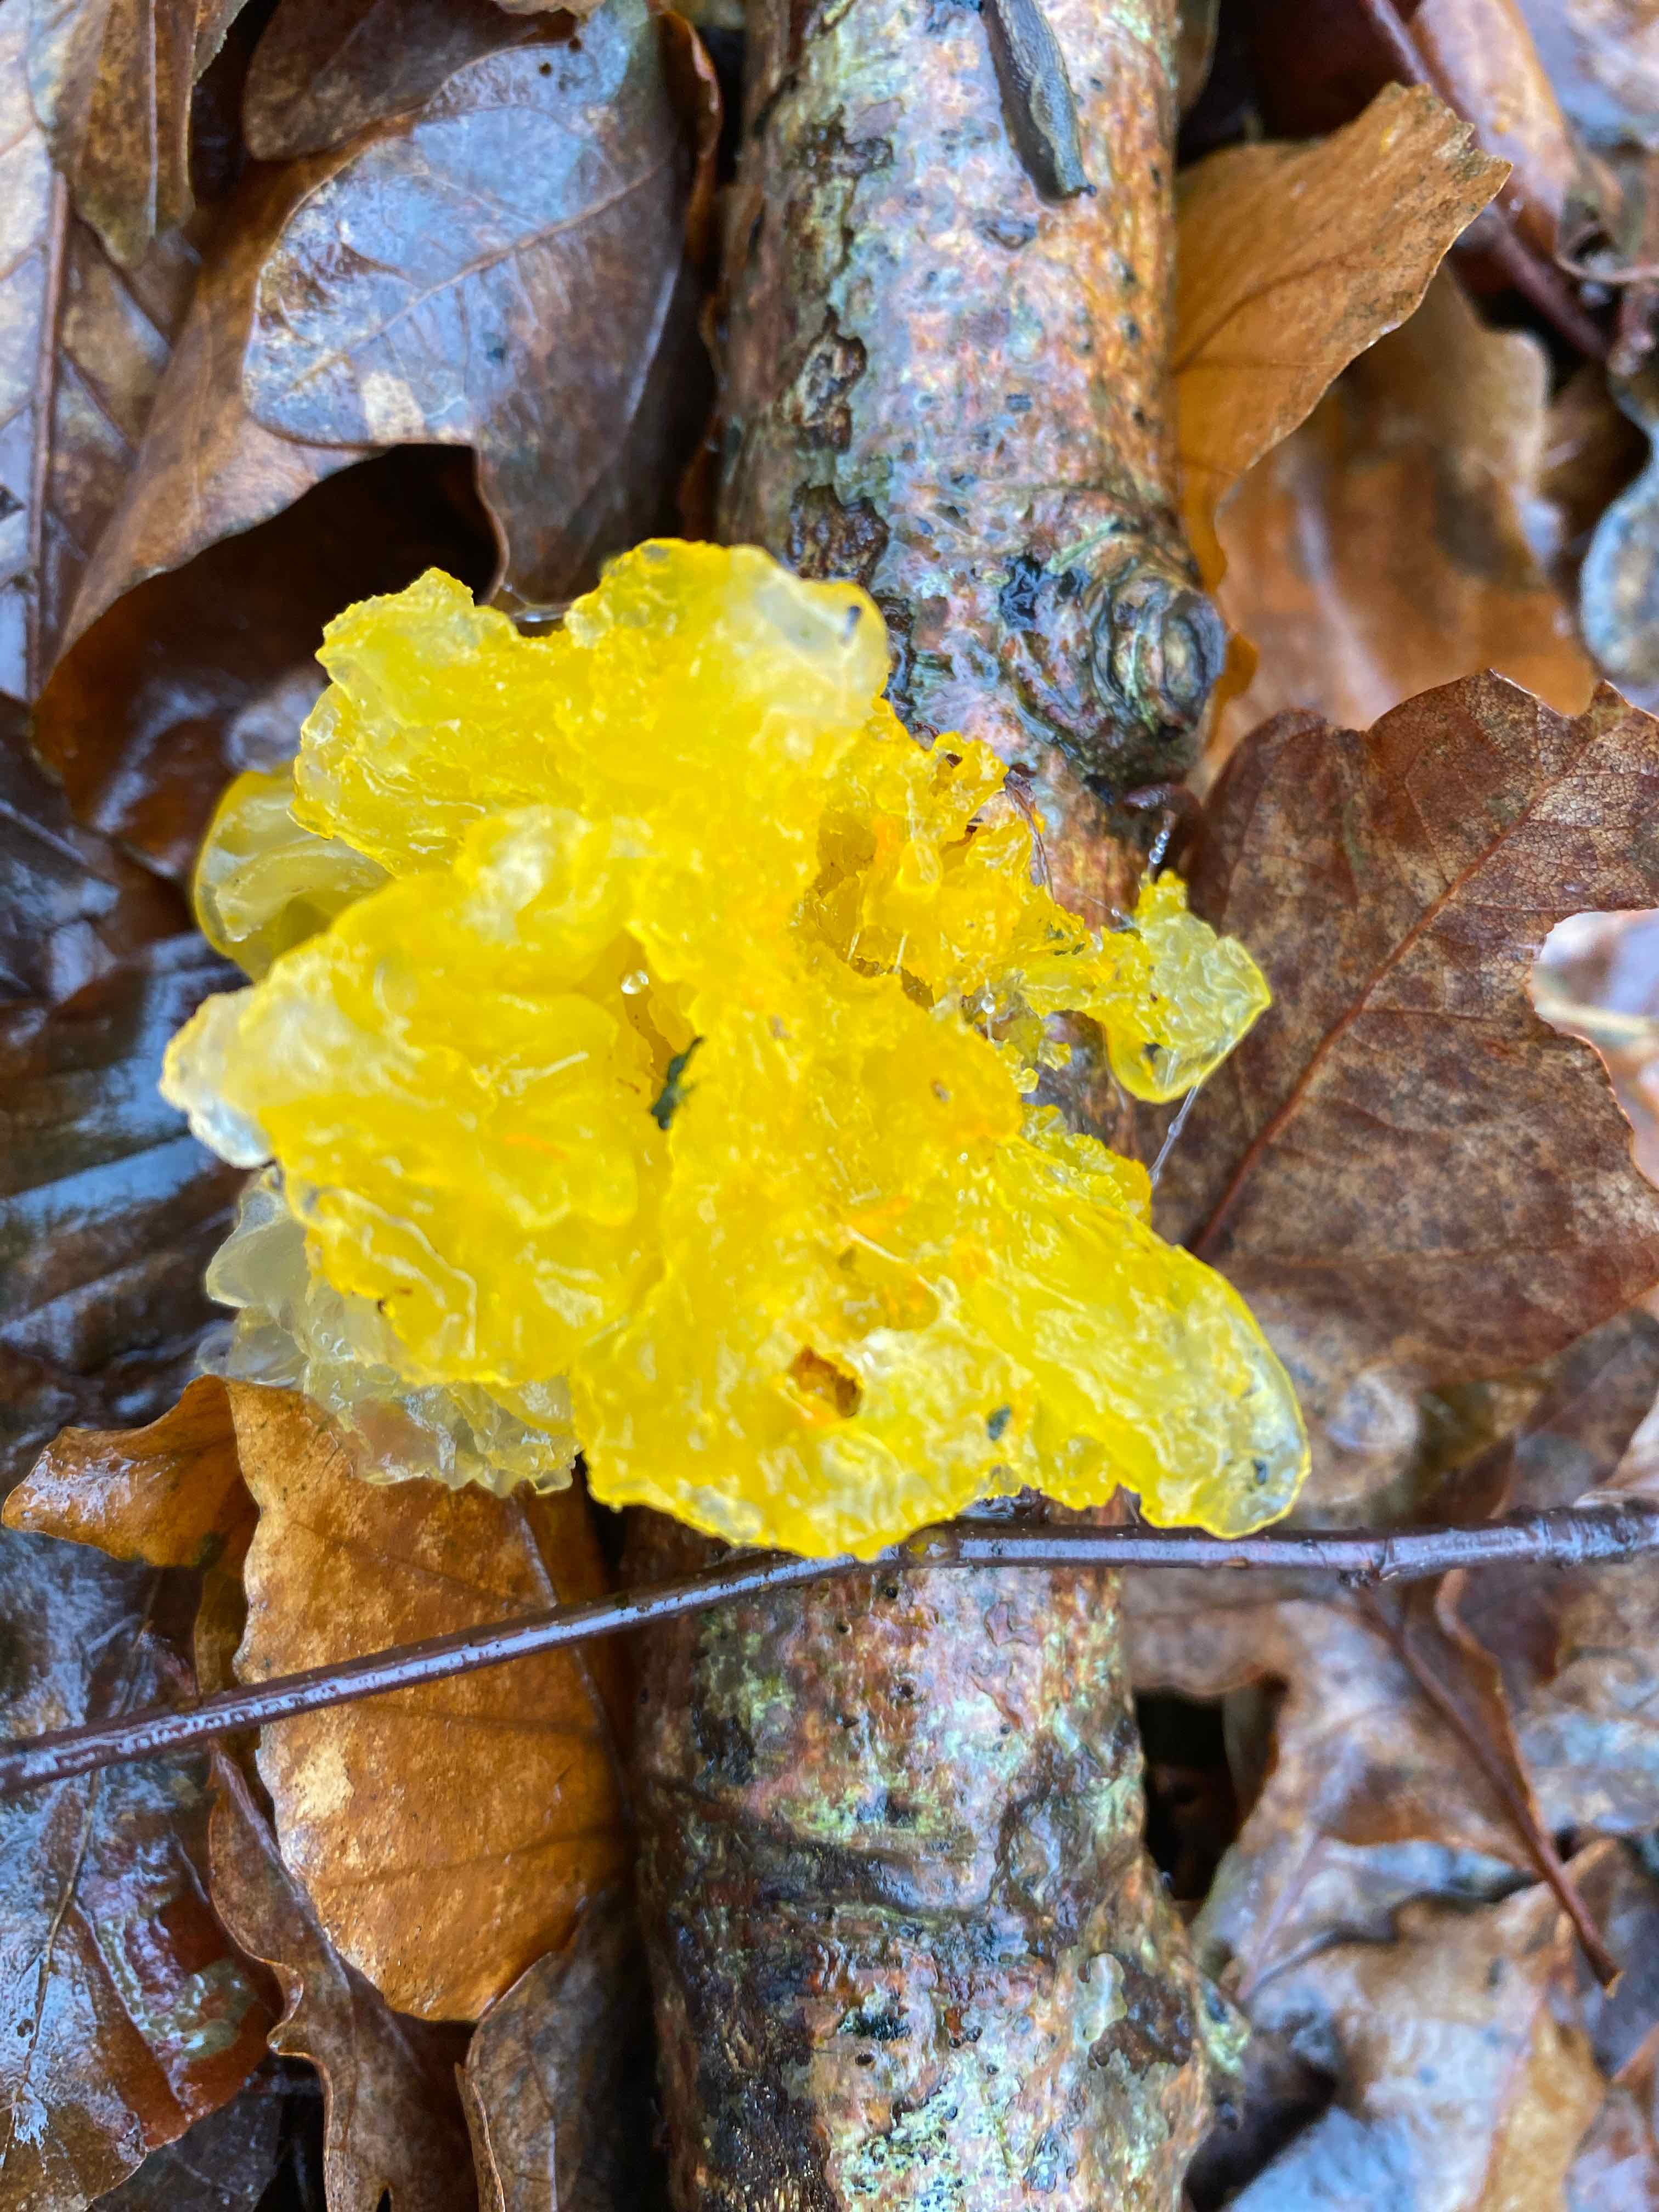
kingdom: Fungi
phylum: Basidiomycota
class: Tremellomycetes
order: Tremellales
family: Tremellaceae
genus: Tremella
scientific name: Tremella mesenterica
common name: gul bævresvamp
